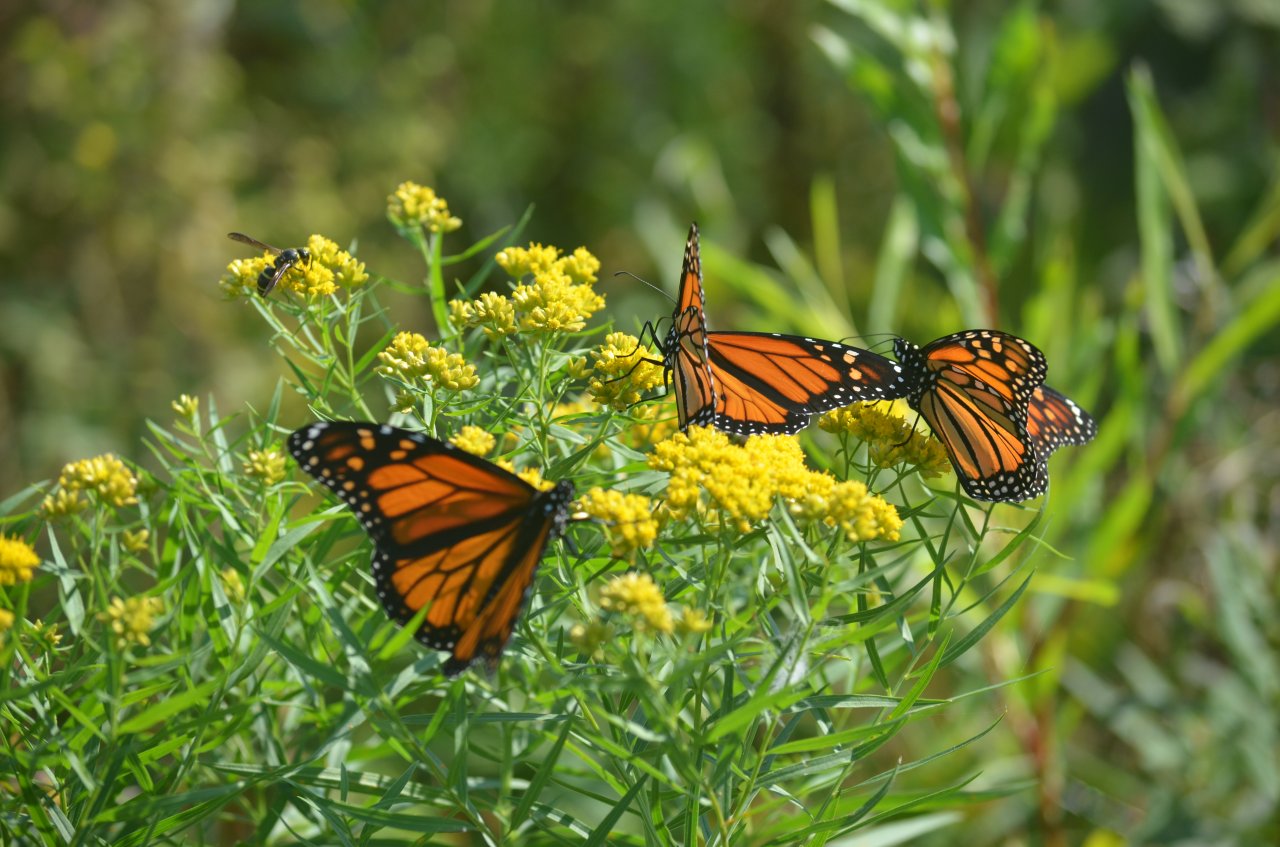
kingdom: Animalia
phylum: Arthropoda
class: Insecta
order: Lepidoptera
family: Nymphalidae
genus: Danaus
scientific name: Danaus plexippus
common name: Monarch
